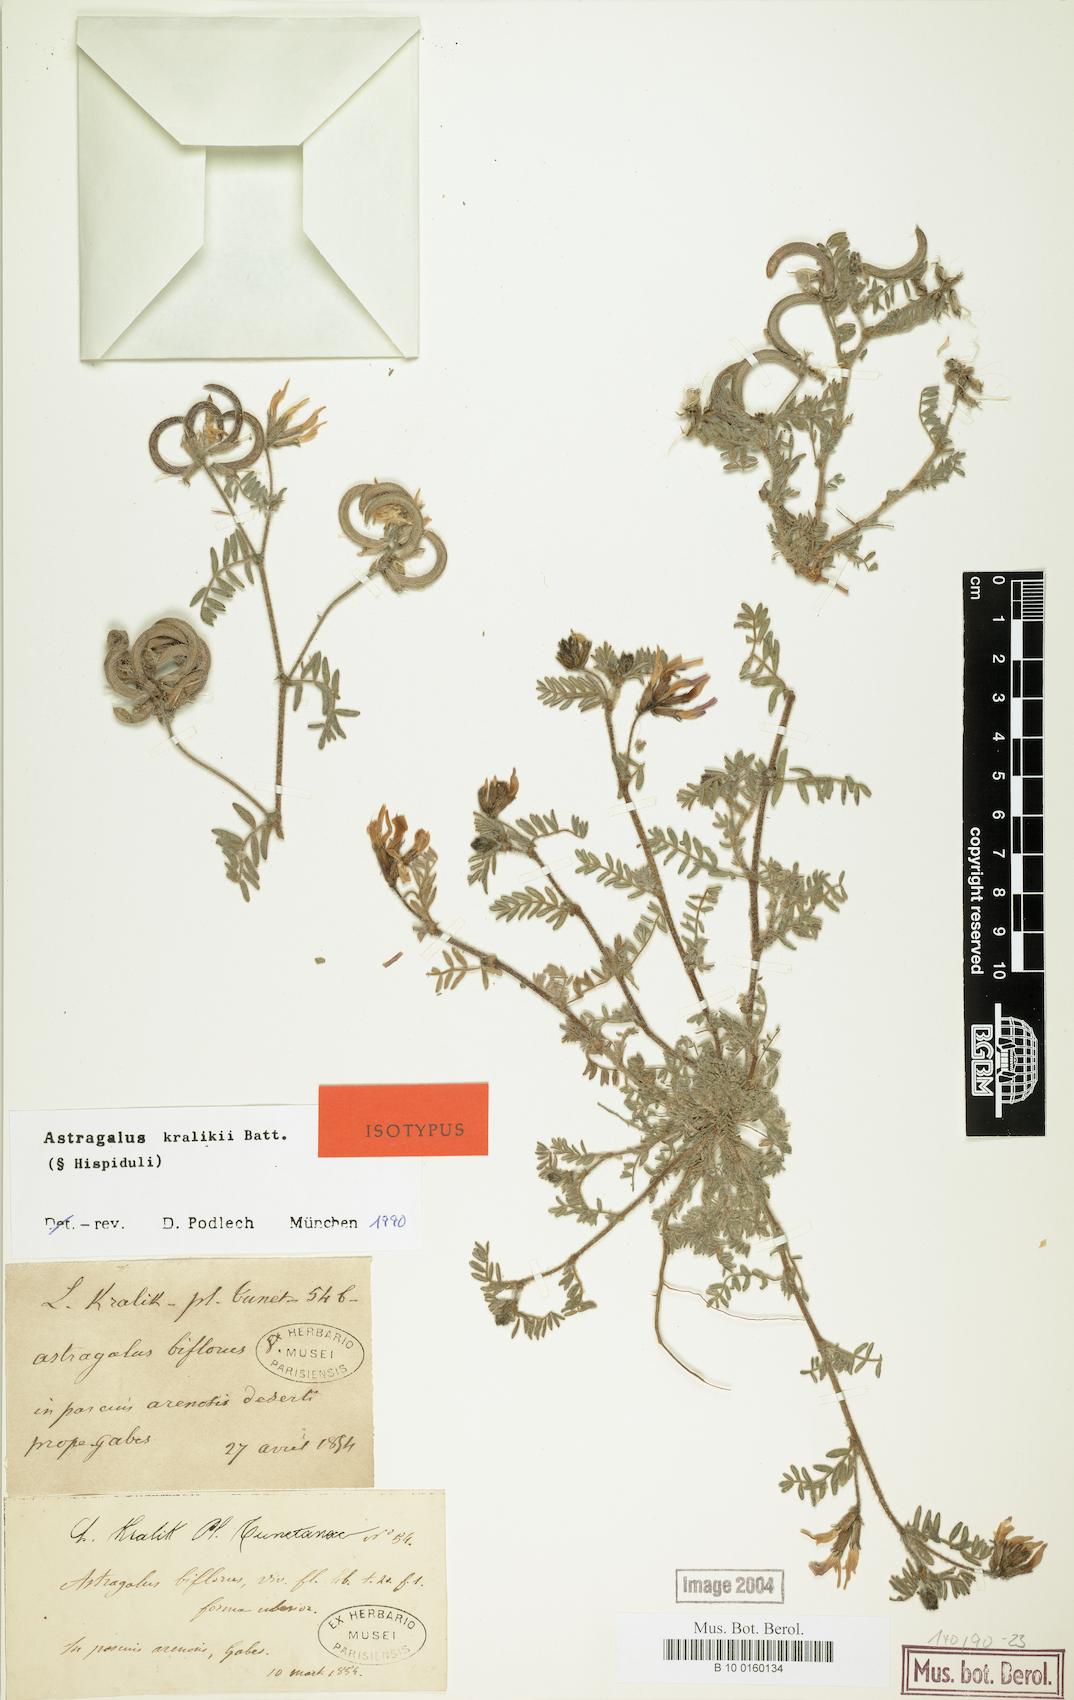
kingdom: Plantae
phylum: Tracheophyta
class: Magnoliopsida
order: Fabales
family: Fabaceae
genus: Astragalus
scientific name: Astragalus kralikii
